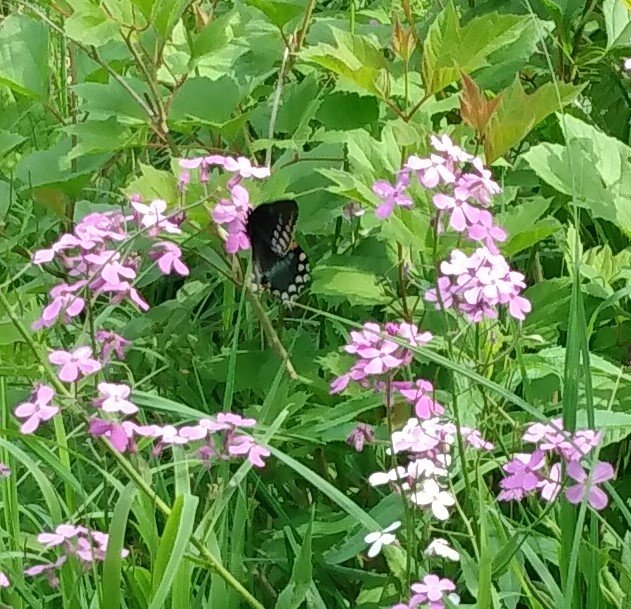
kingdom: Animalia
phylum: Arthropoda
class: Insecta
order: Lepidoptera
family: Papilionidae
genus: Pterourus
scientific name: Pterourus troilus
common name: Spicebush Swallowtail
